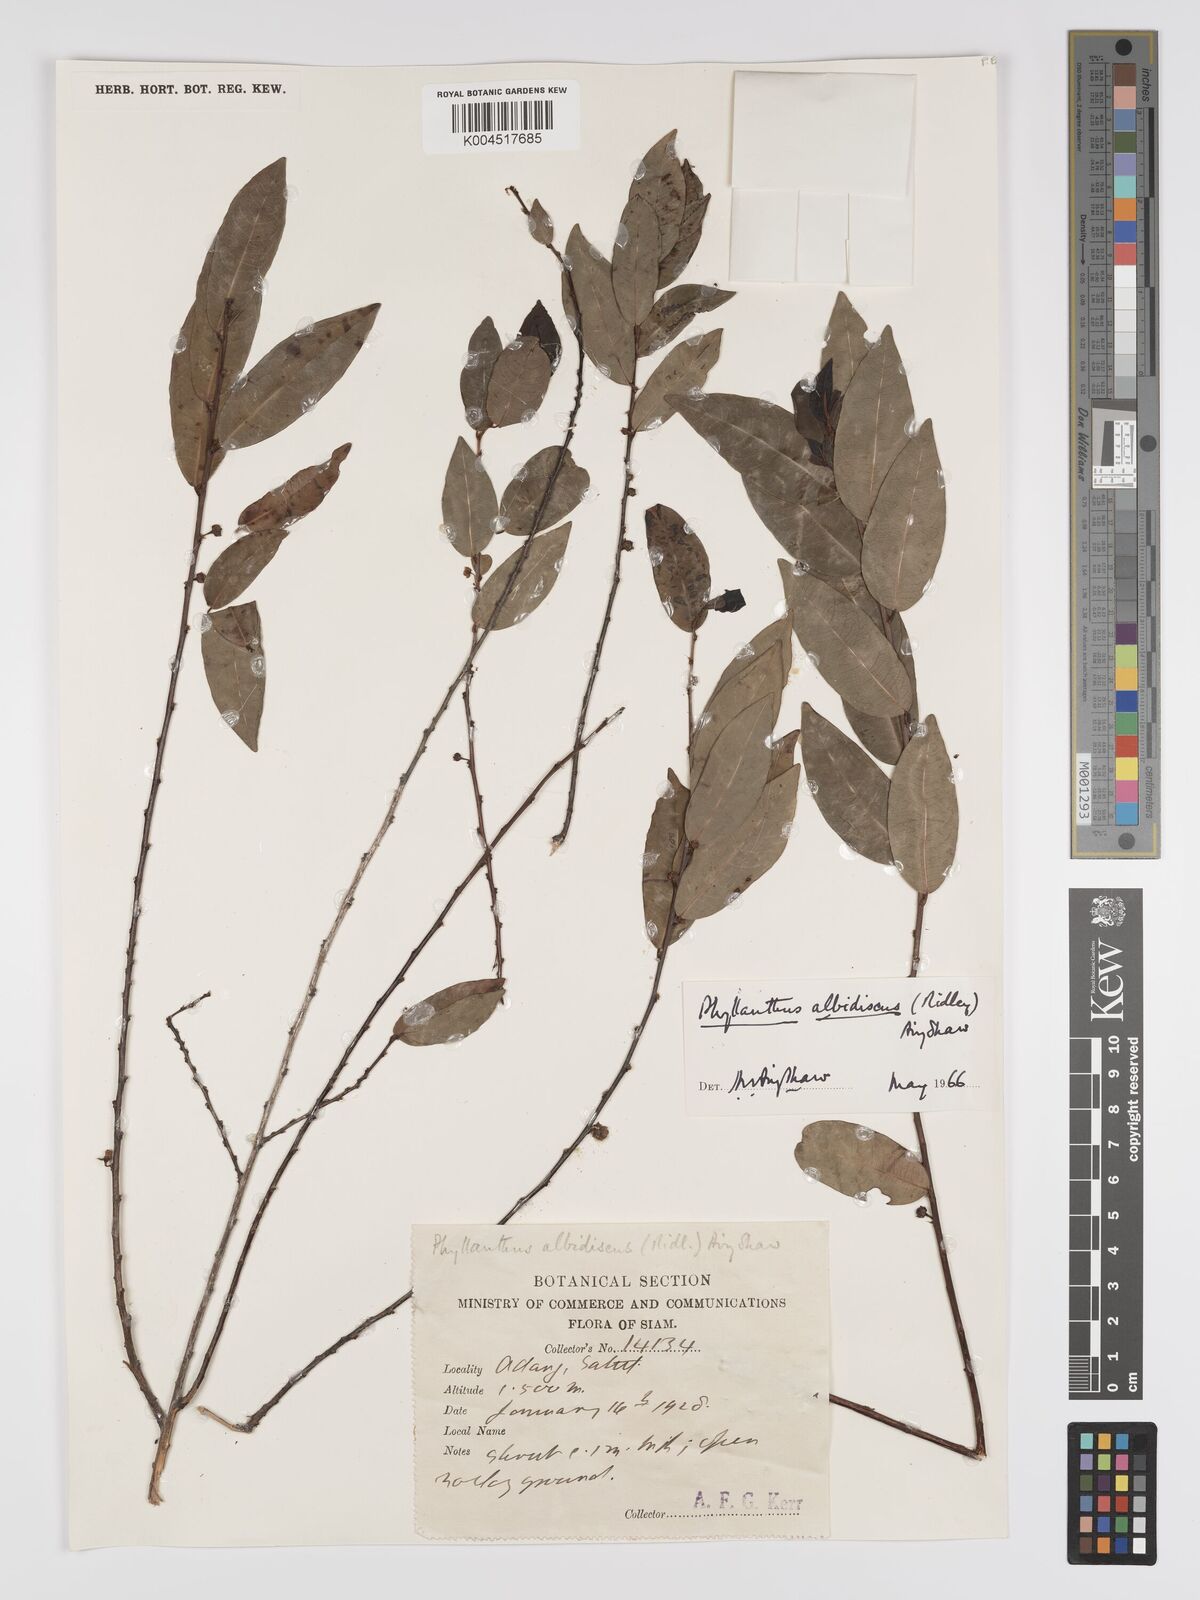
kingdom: Plantae
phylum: Tracheophyta
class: Magnoliopsida
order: Malpighiales
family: Phyllanthaceae
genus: Phyllanthus
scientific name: Phyllanthus albidiscus
